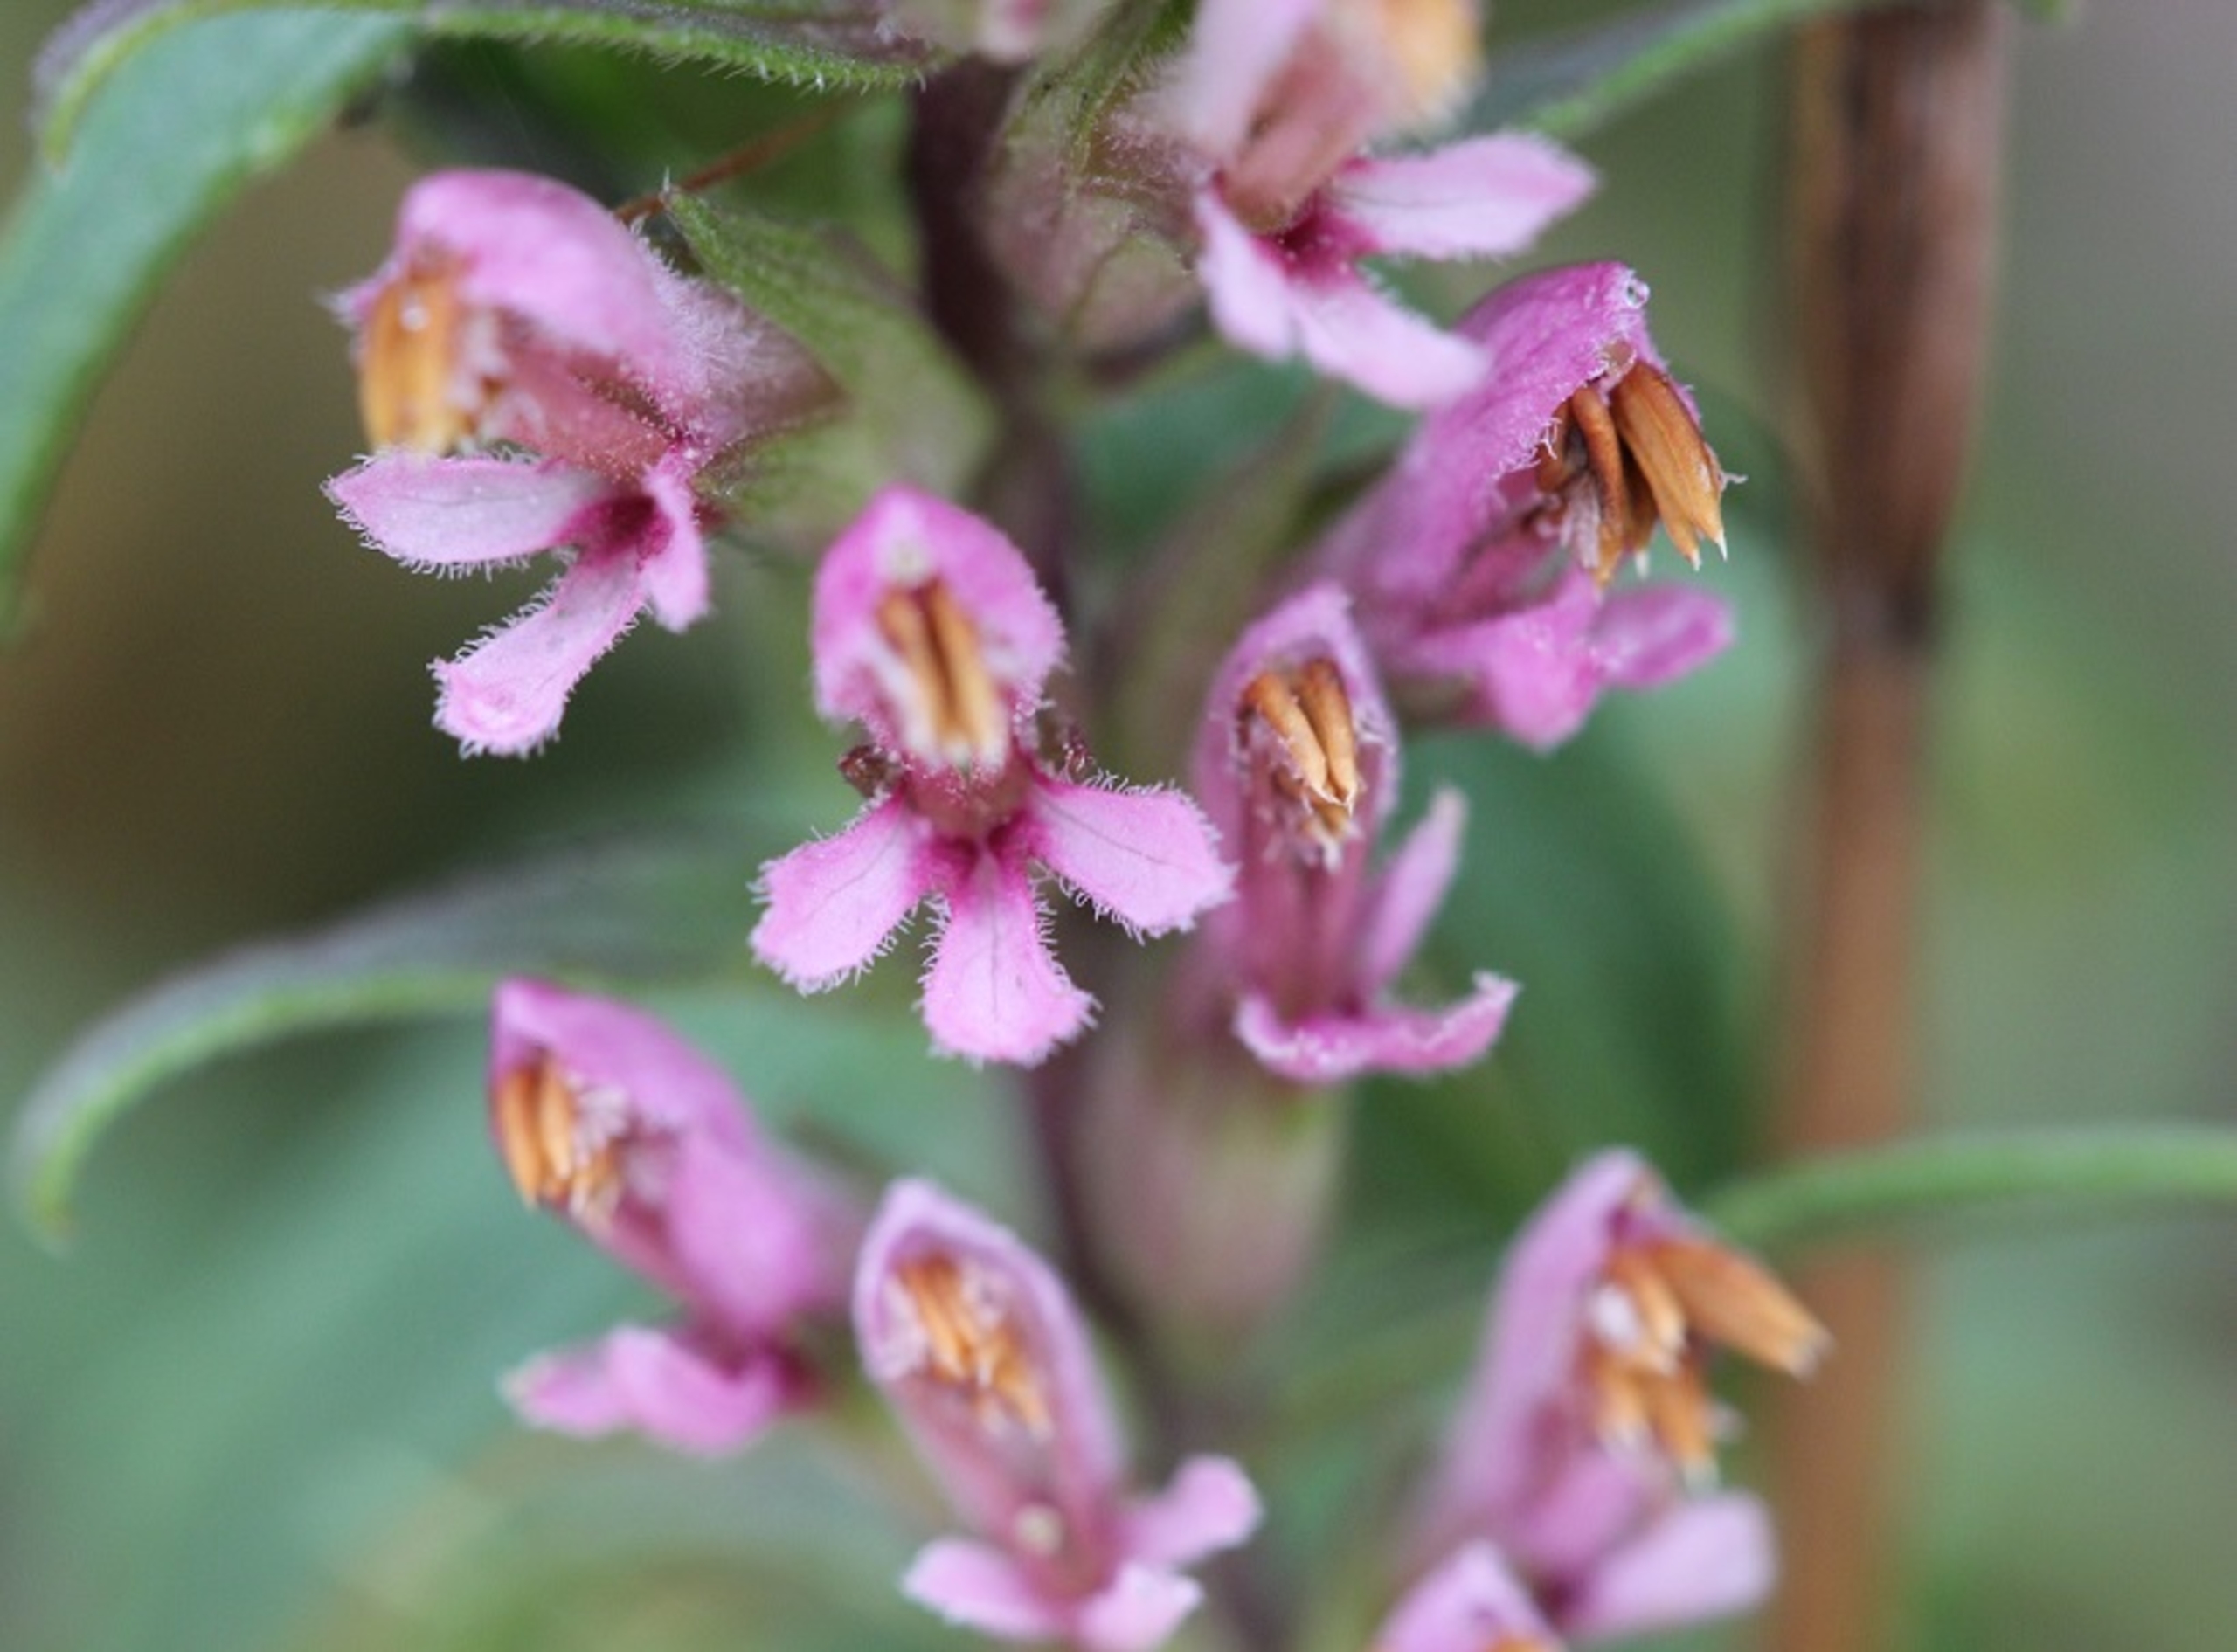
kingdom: Plantae
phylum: Tracheophyta
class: Magnoliopsida
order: Lamiales
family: Orobanchaceae
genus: Odontites
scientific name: Odontites vulgaris
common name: Høst-rødtop
